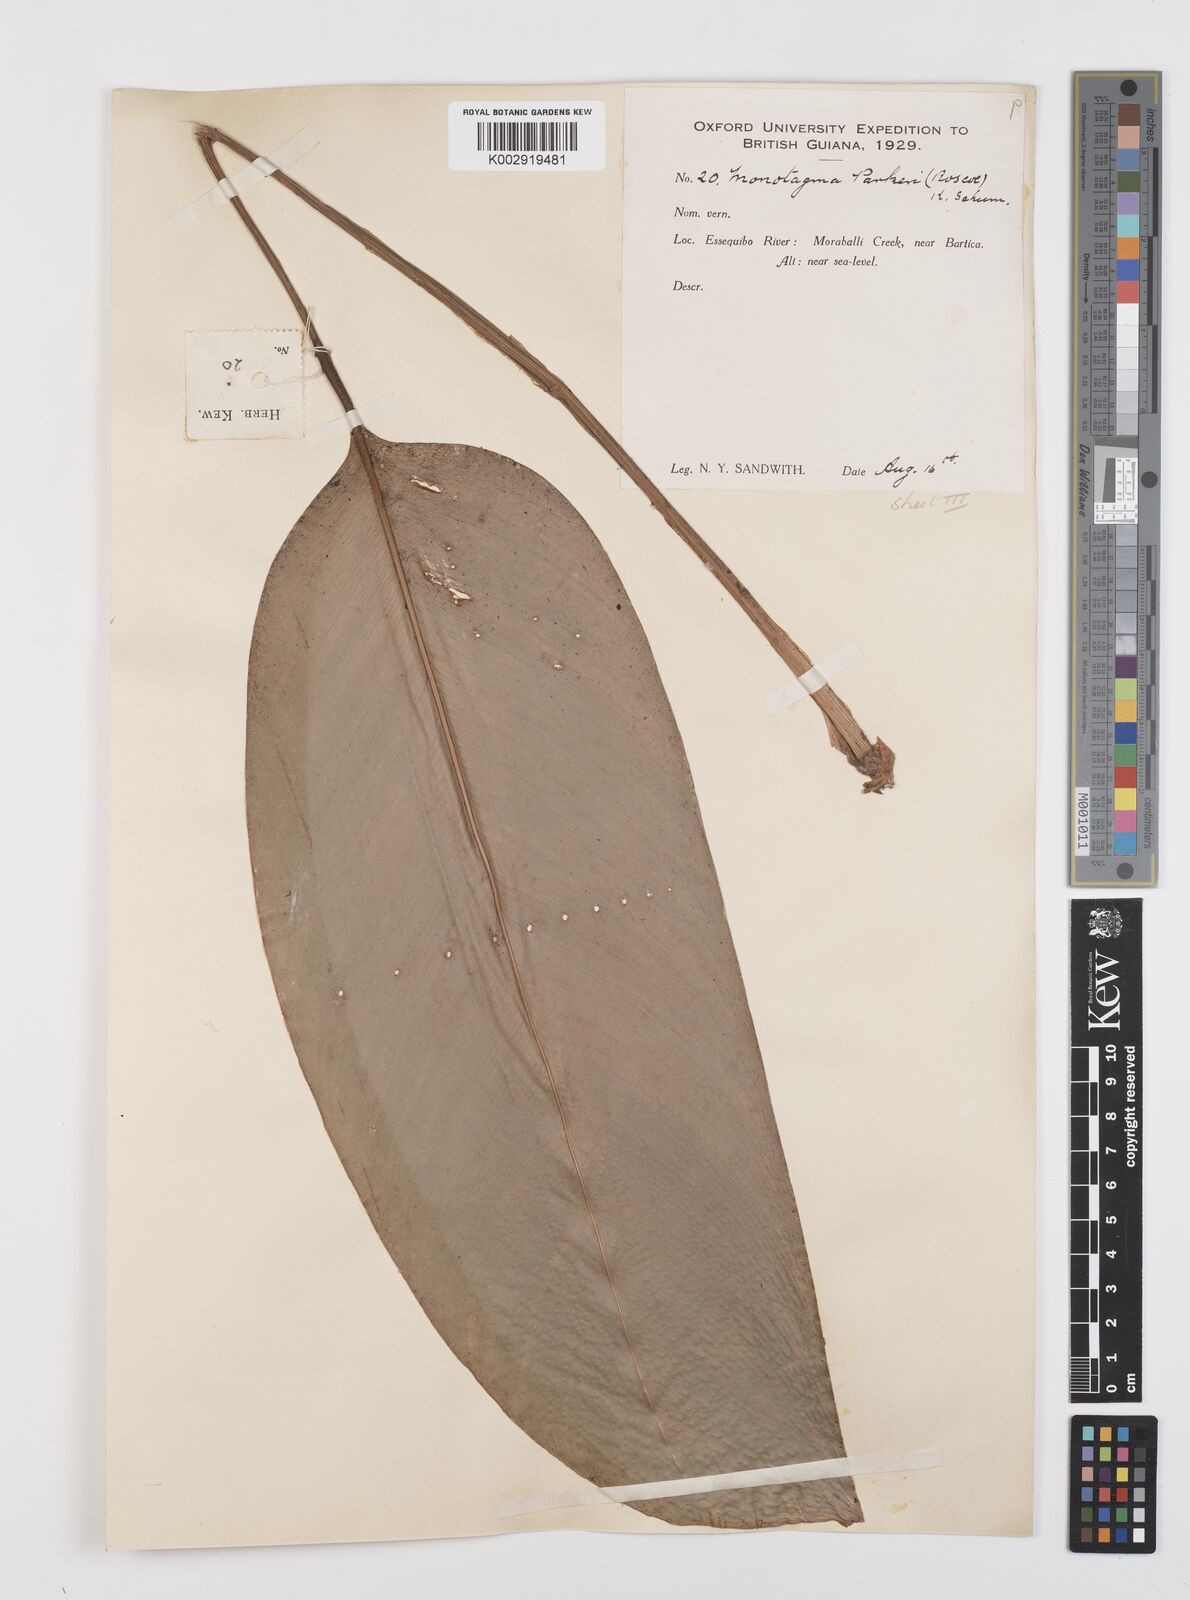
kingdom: Plantae
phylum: Tracheophyta
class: Liliopsida
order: Zingiberales
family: Marantaceae
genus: Monotagma
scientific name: Monotagma spicatum
